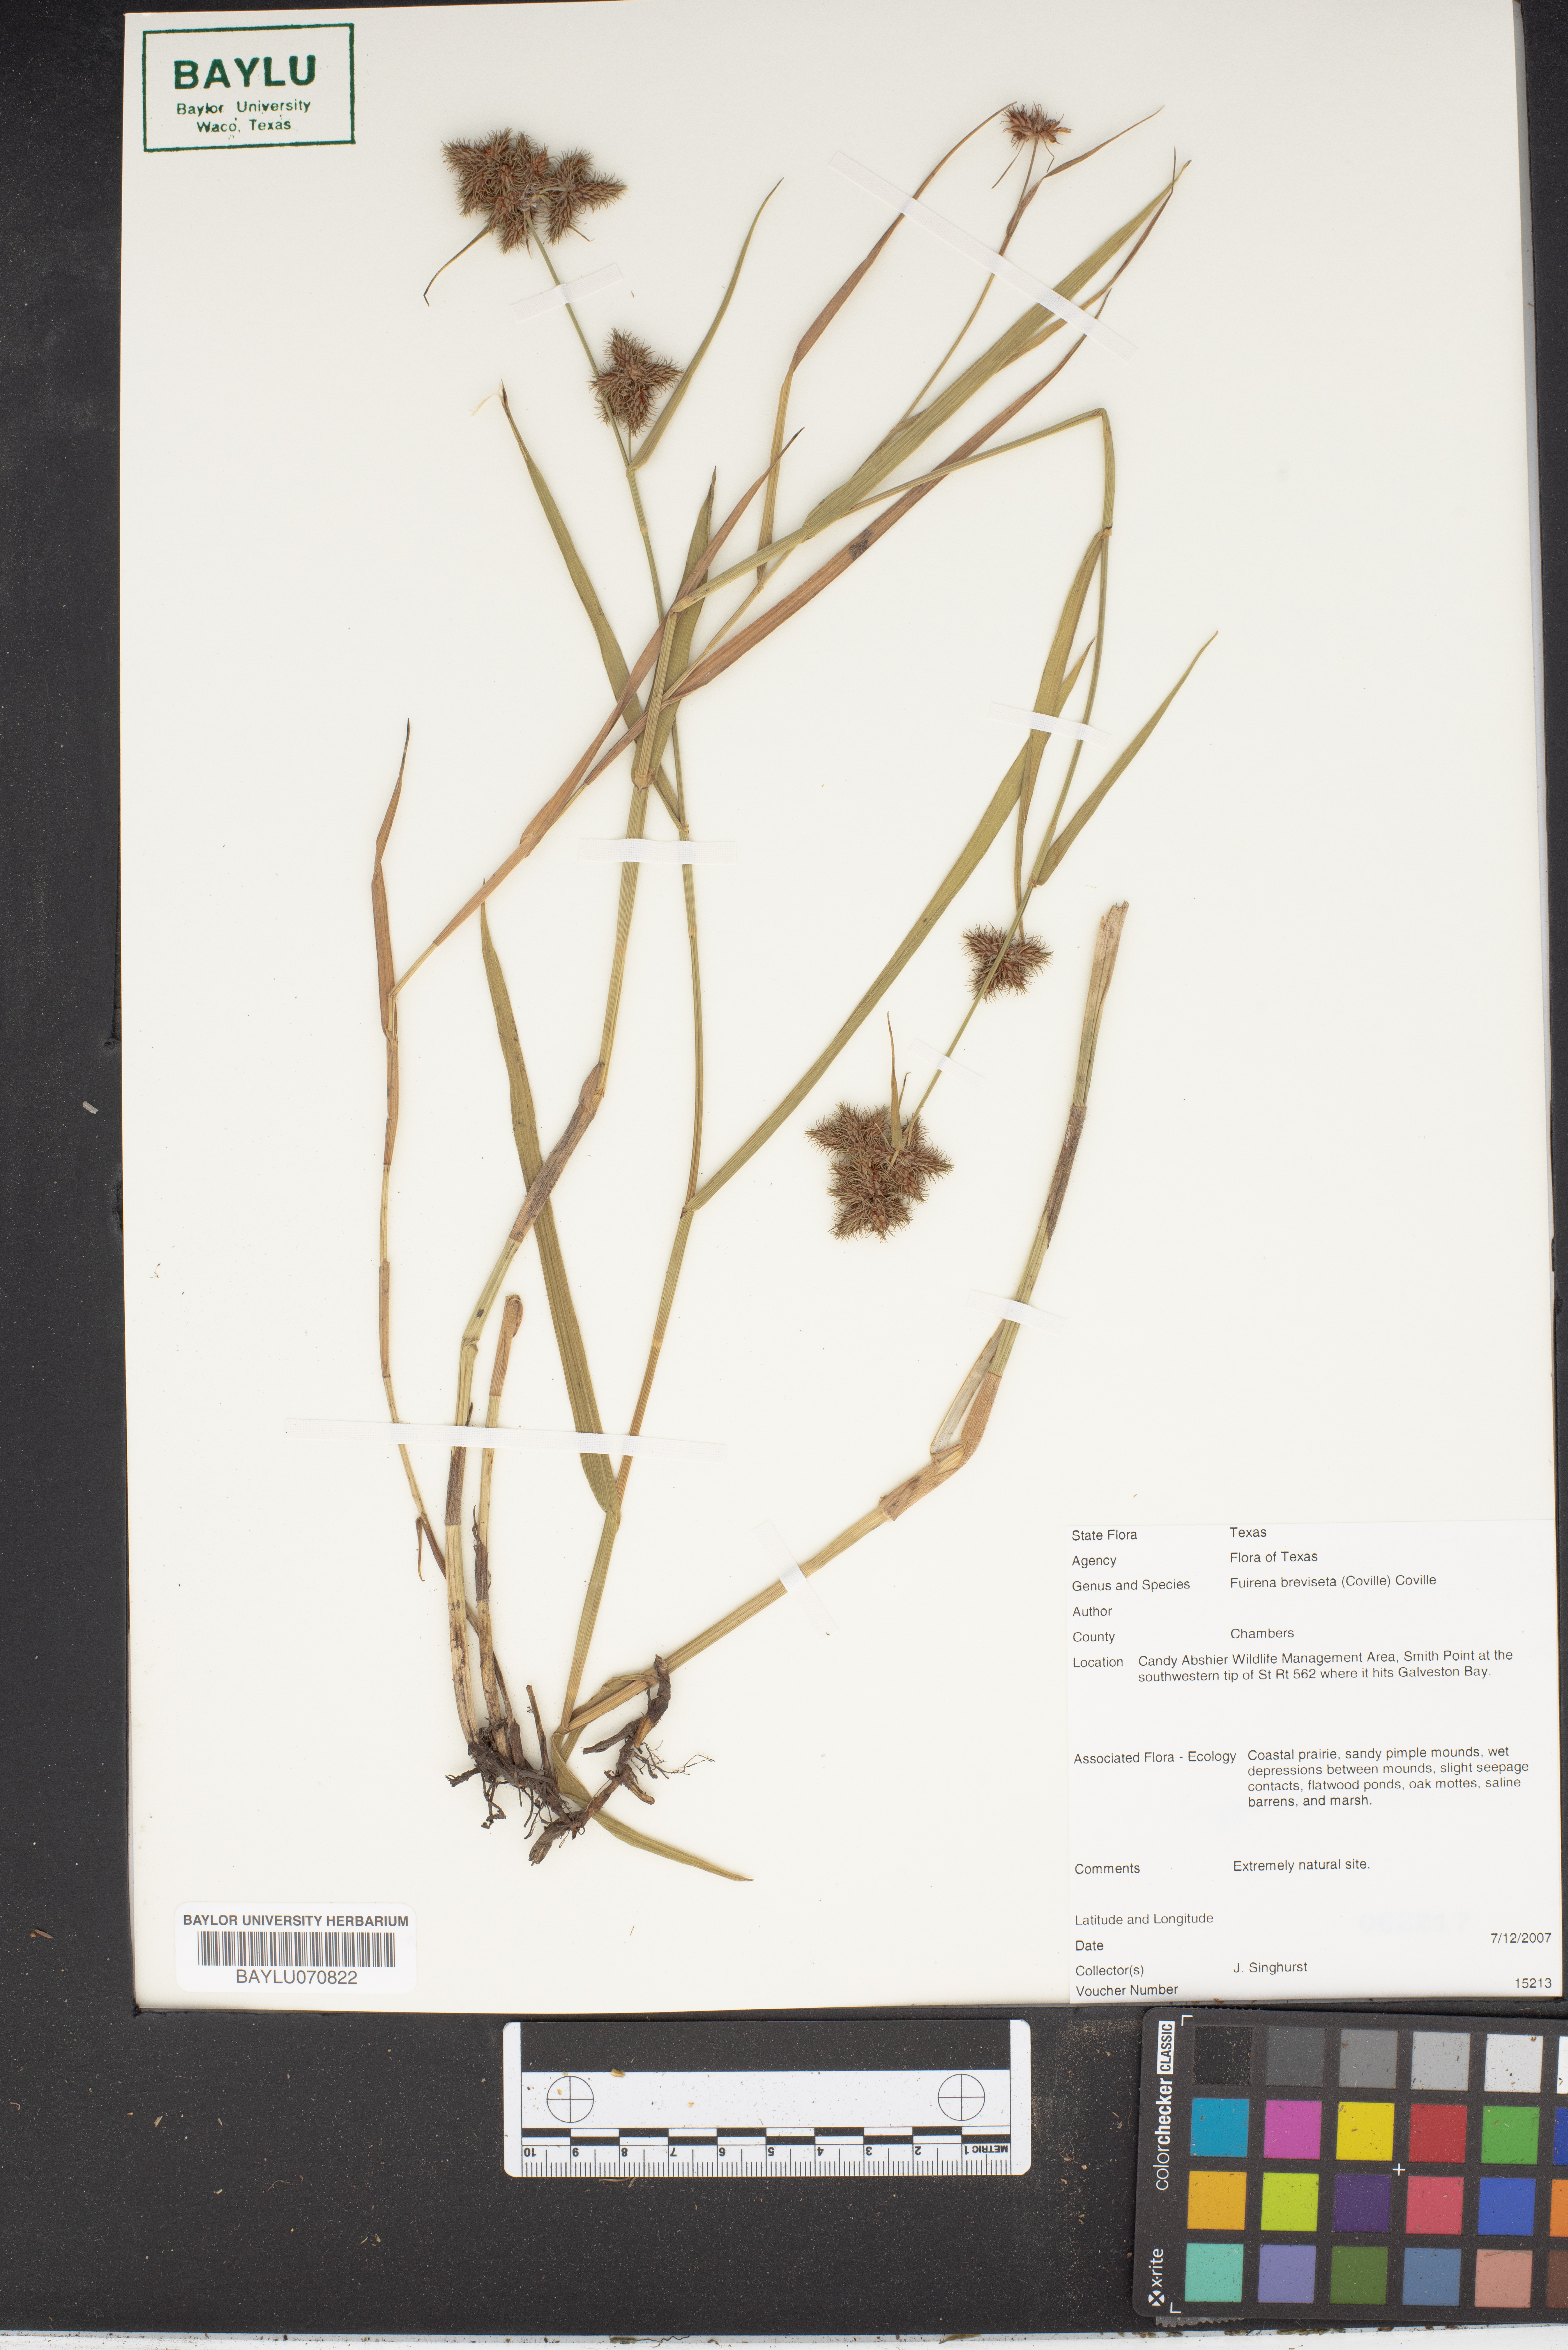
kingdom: Plantae
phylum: Tracheophyta
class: Liliopsida
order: Poales
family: Cyperaceae
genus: Fuirena
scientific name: Fuirena breviseta
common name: Saltmarsh umbrella sedge
